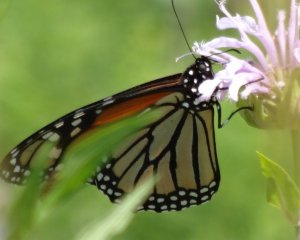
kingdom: Animalia
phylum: Arthropoda
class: Insecta
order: Lepidoptera
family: Nymphalidae
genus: Danaus
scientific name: Danaus plexippus
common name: Monarch
